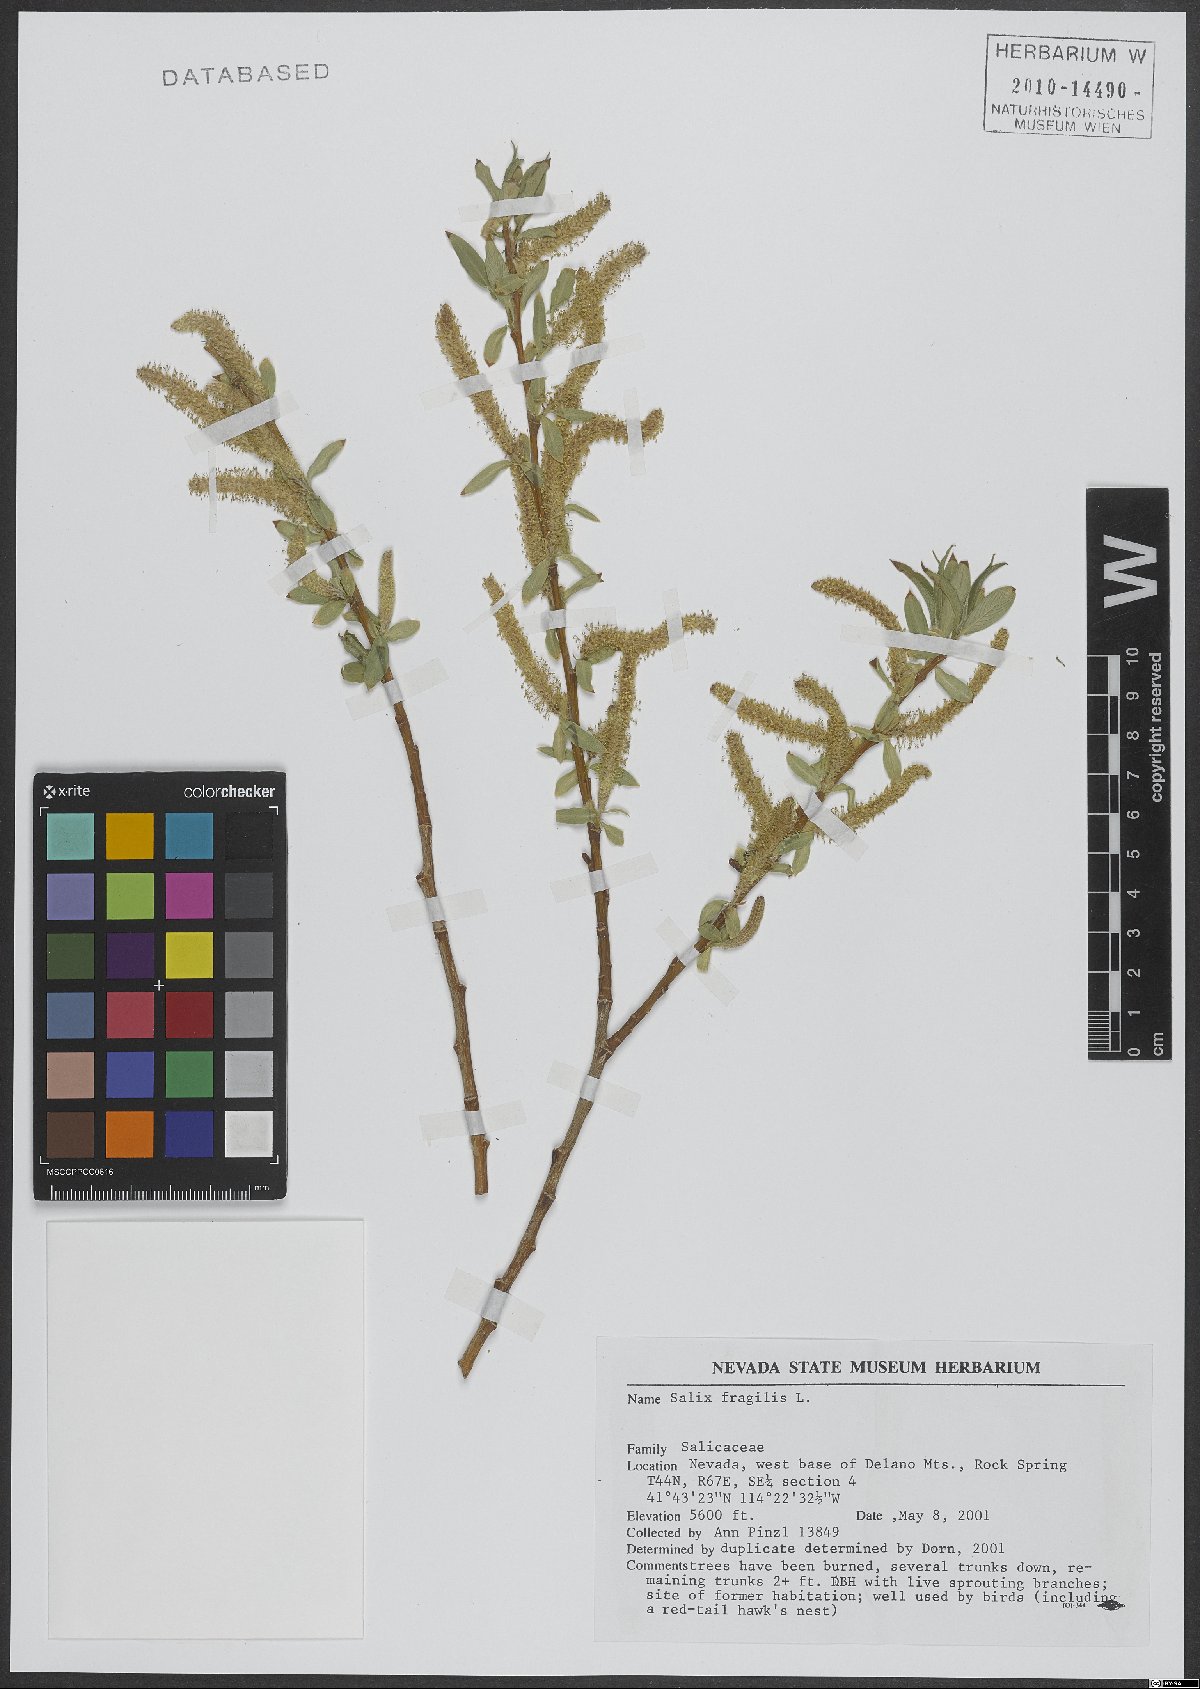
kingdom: Plantae
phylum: Tracheophyta
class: Magnoliopsida
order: Malpighiales
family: Salicaceae
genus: Salix
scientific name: Salix fragilis
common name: Crack willow
